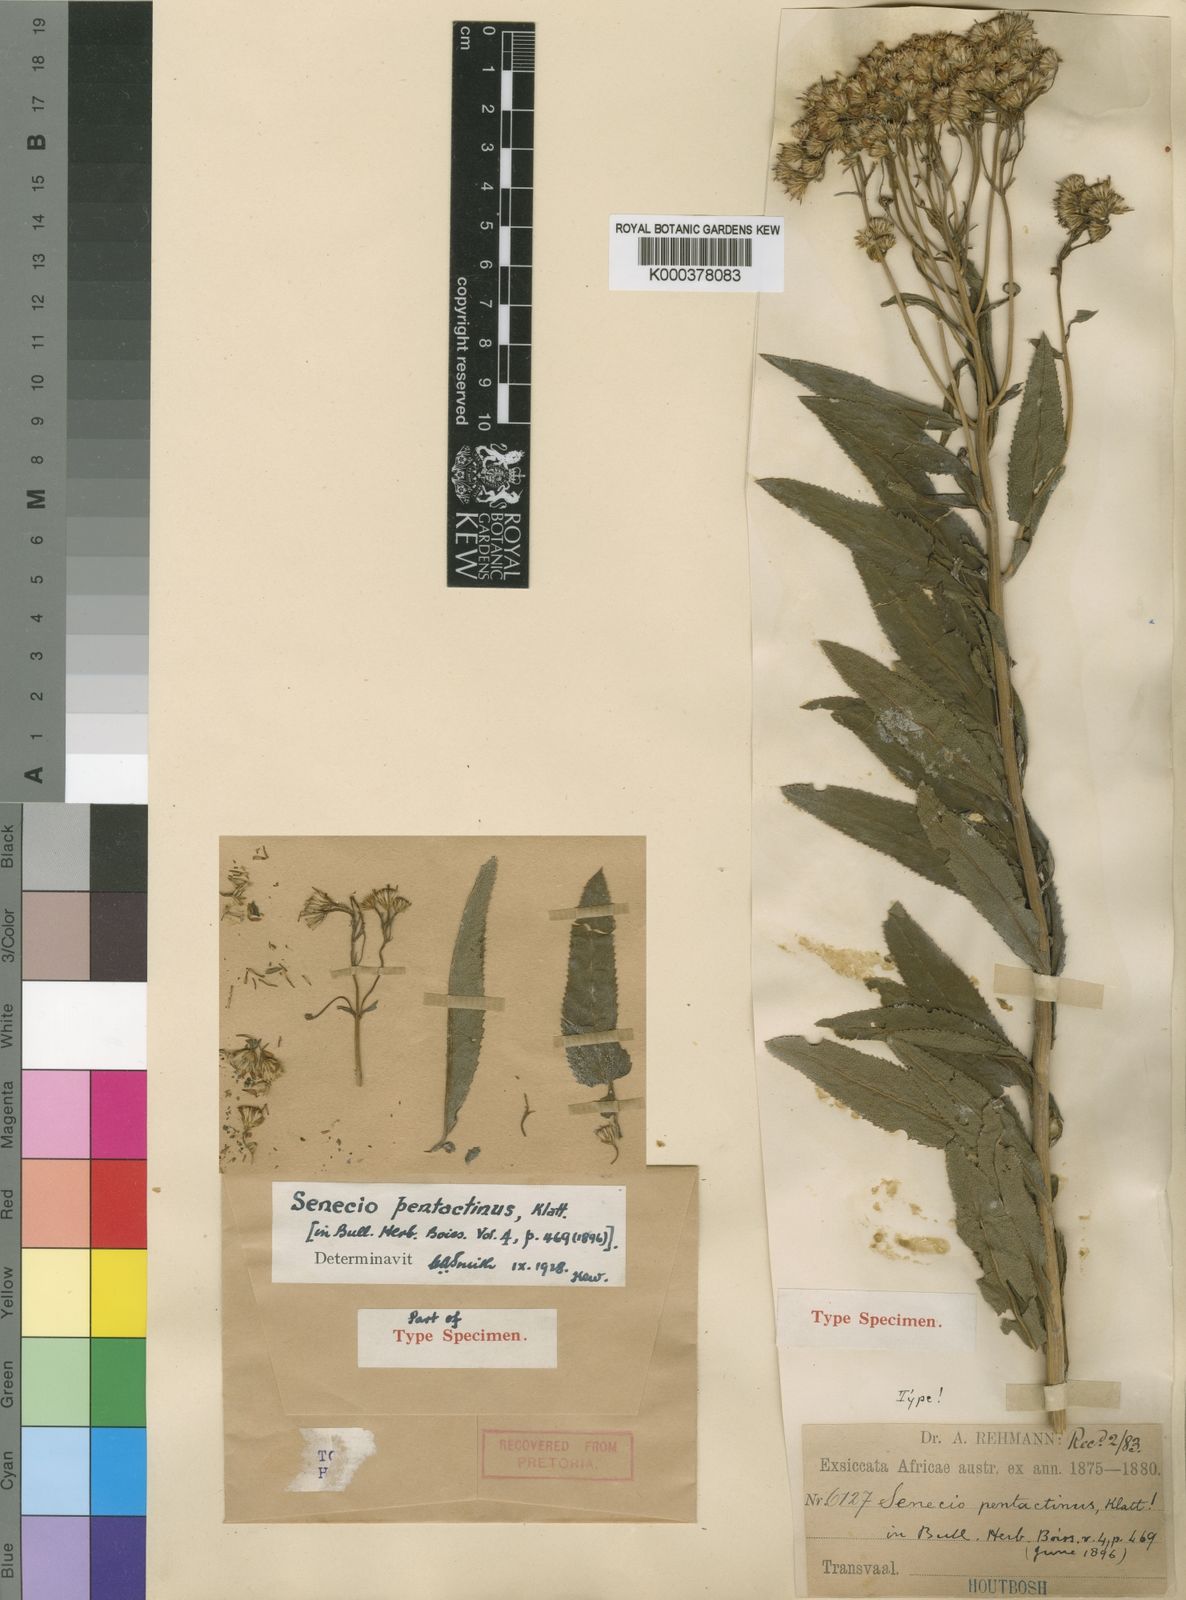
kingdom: Plantae
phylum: Tracheophyta
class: Magnoliopsida
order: Asterales
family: Asteraceae
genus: Senecio
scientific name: Senecio pentactinus
